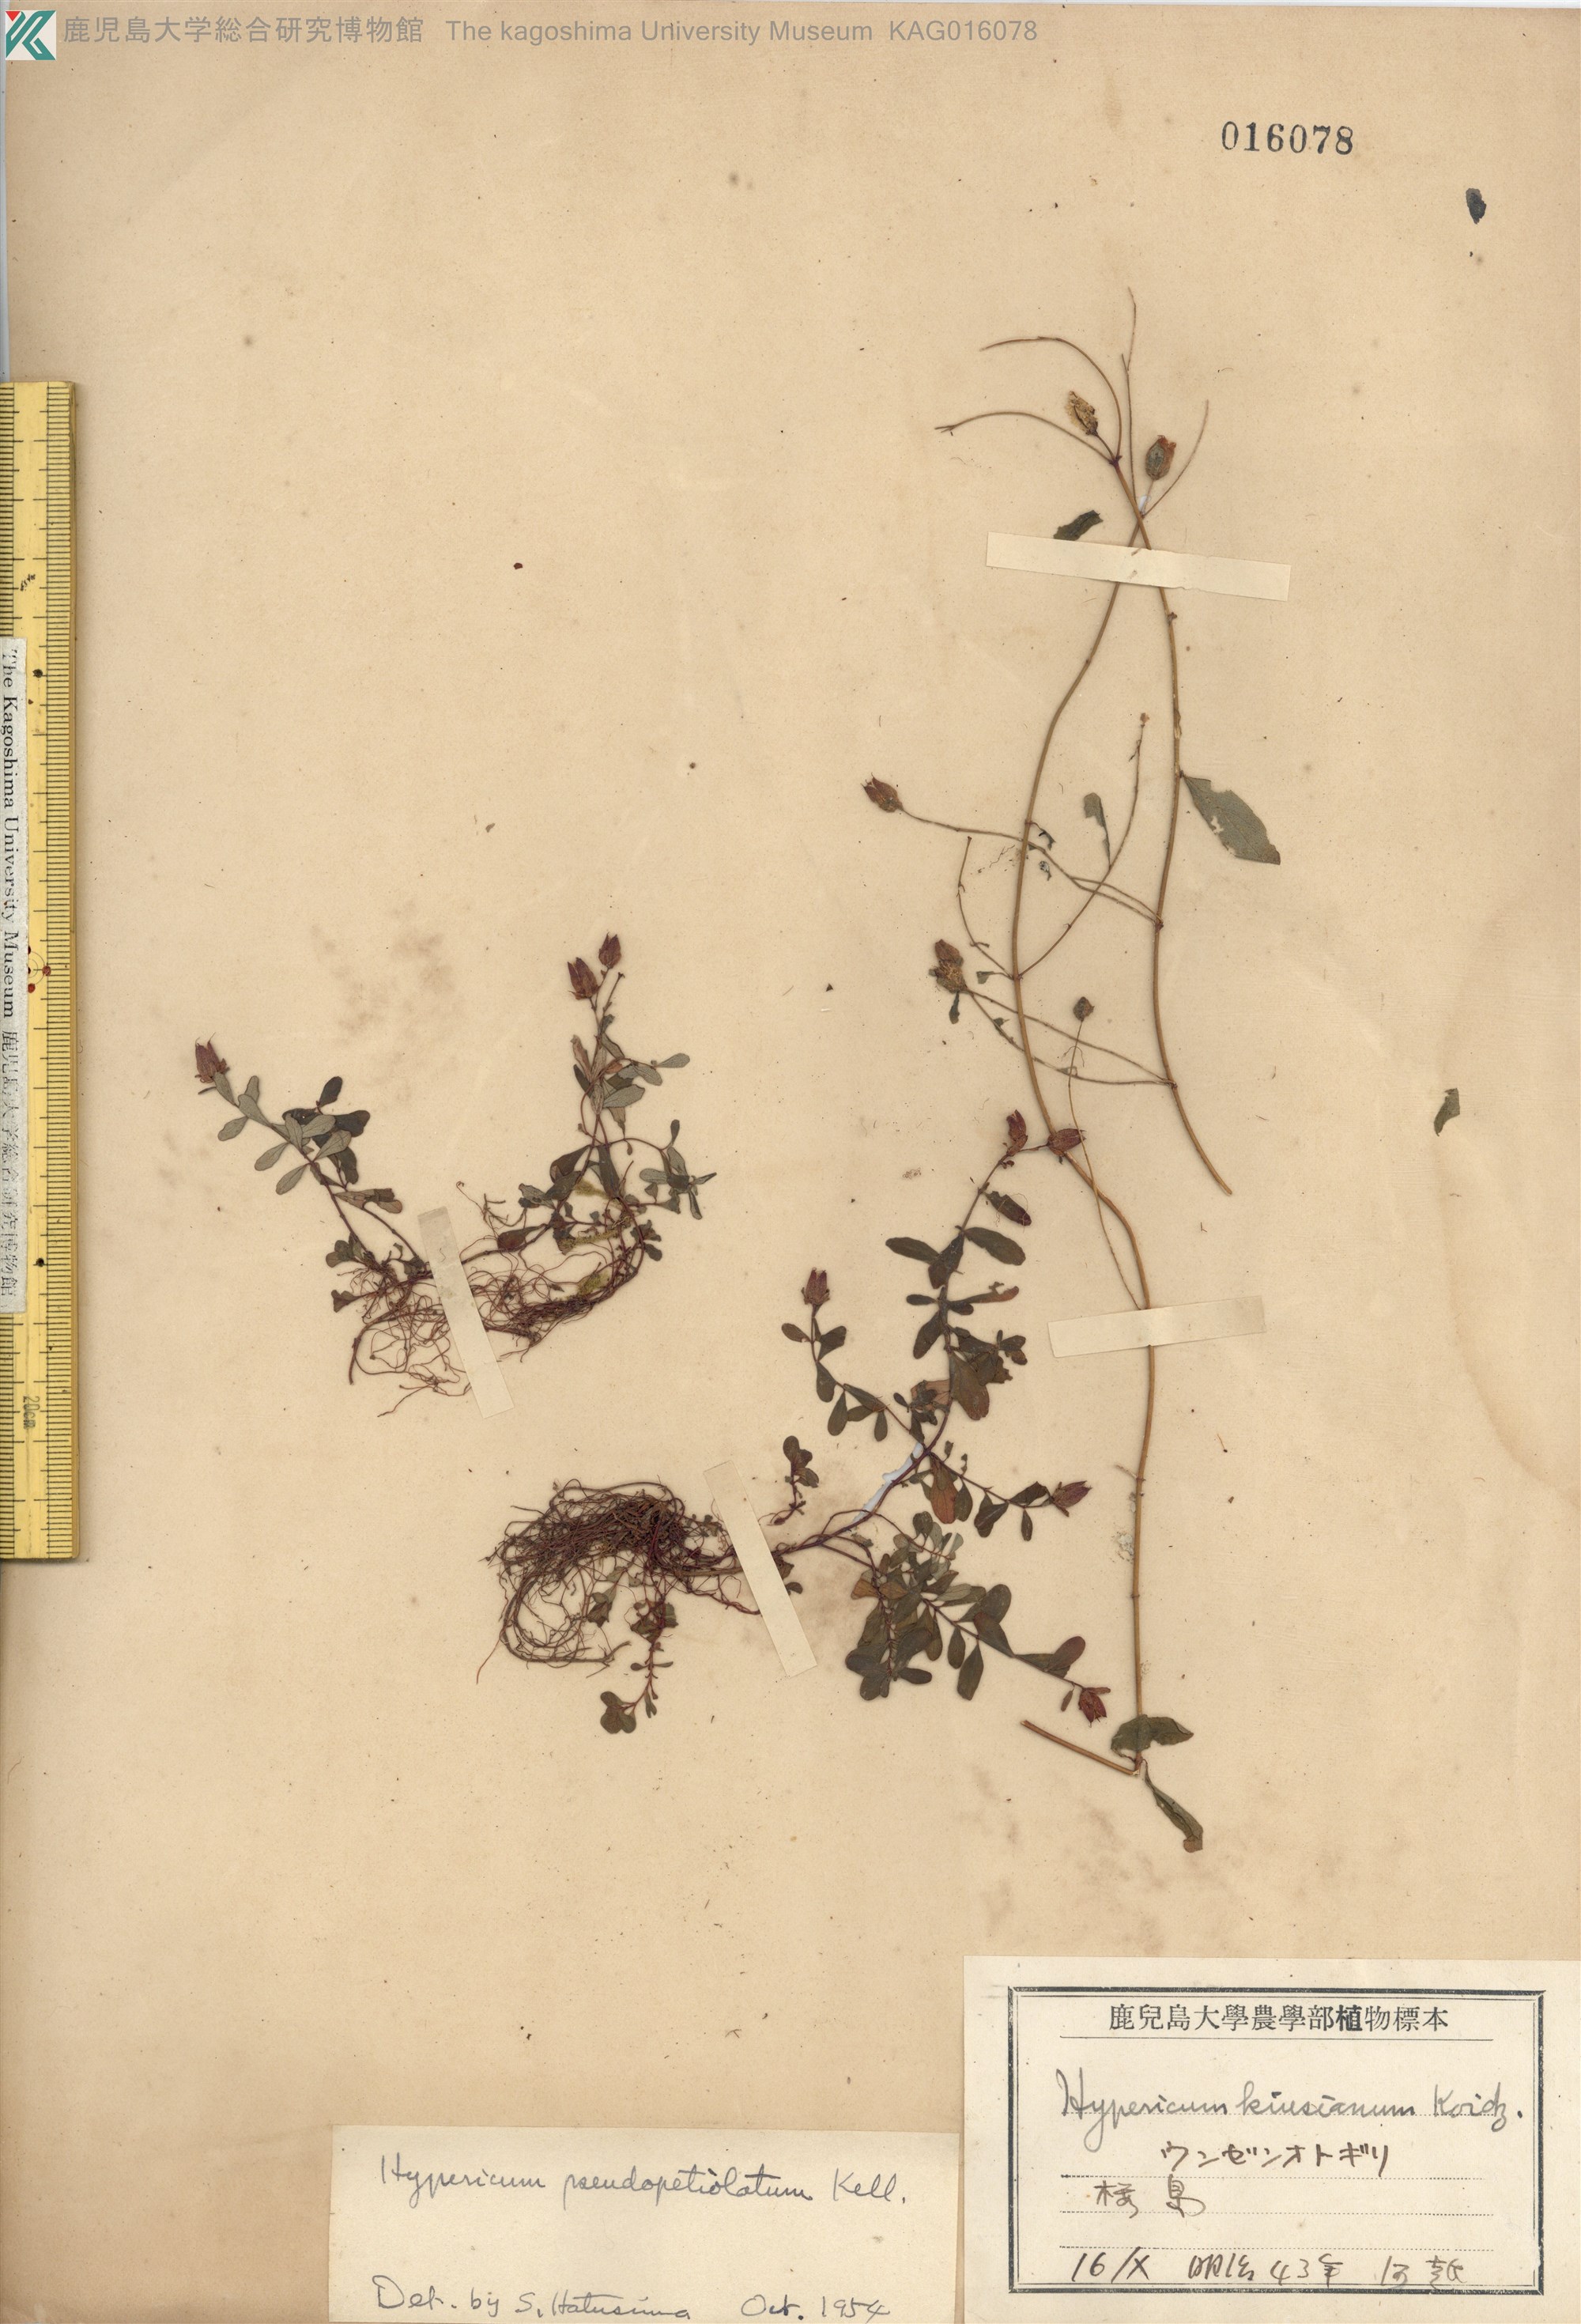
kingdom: Plantae
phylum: Tracheophyta
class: Magnoliopsida
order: Malpighiales
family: Hypericaceae
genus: Hypericum
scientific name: Hypericum pseudopetiolatum
